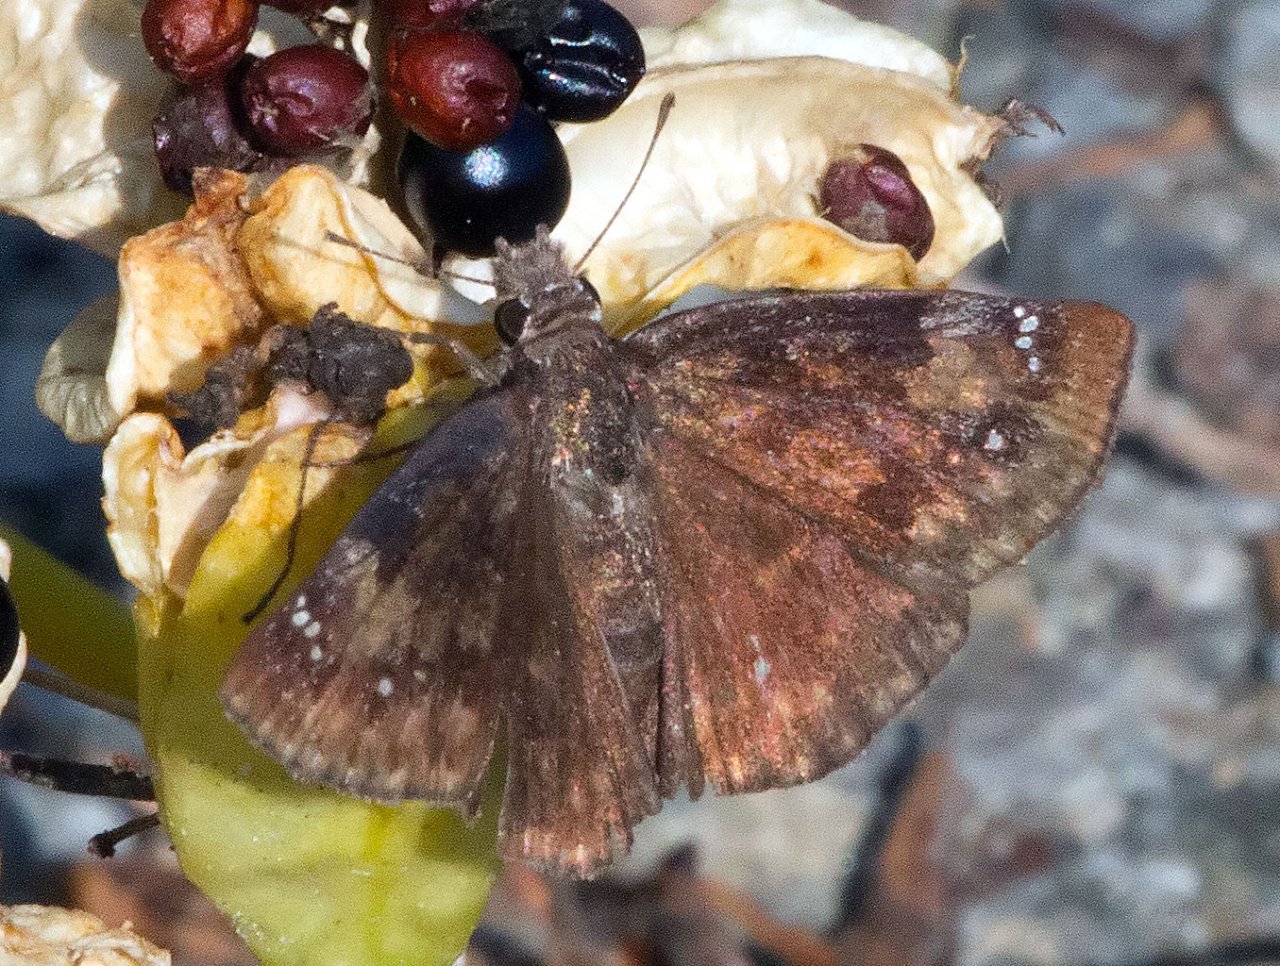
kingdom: Animalia
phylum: Arthropoda
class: Insecta
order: Lepidoptera
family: Hesperiidae
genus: Gesta
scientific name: Gesta
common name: Wild Indigo Duskywing
